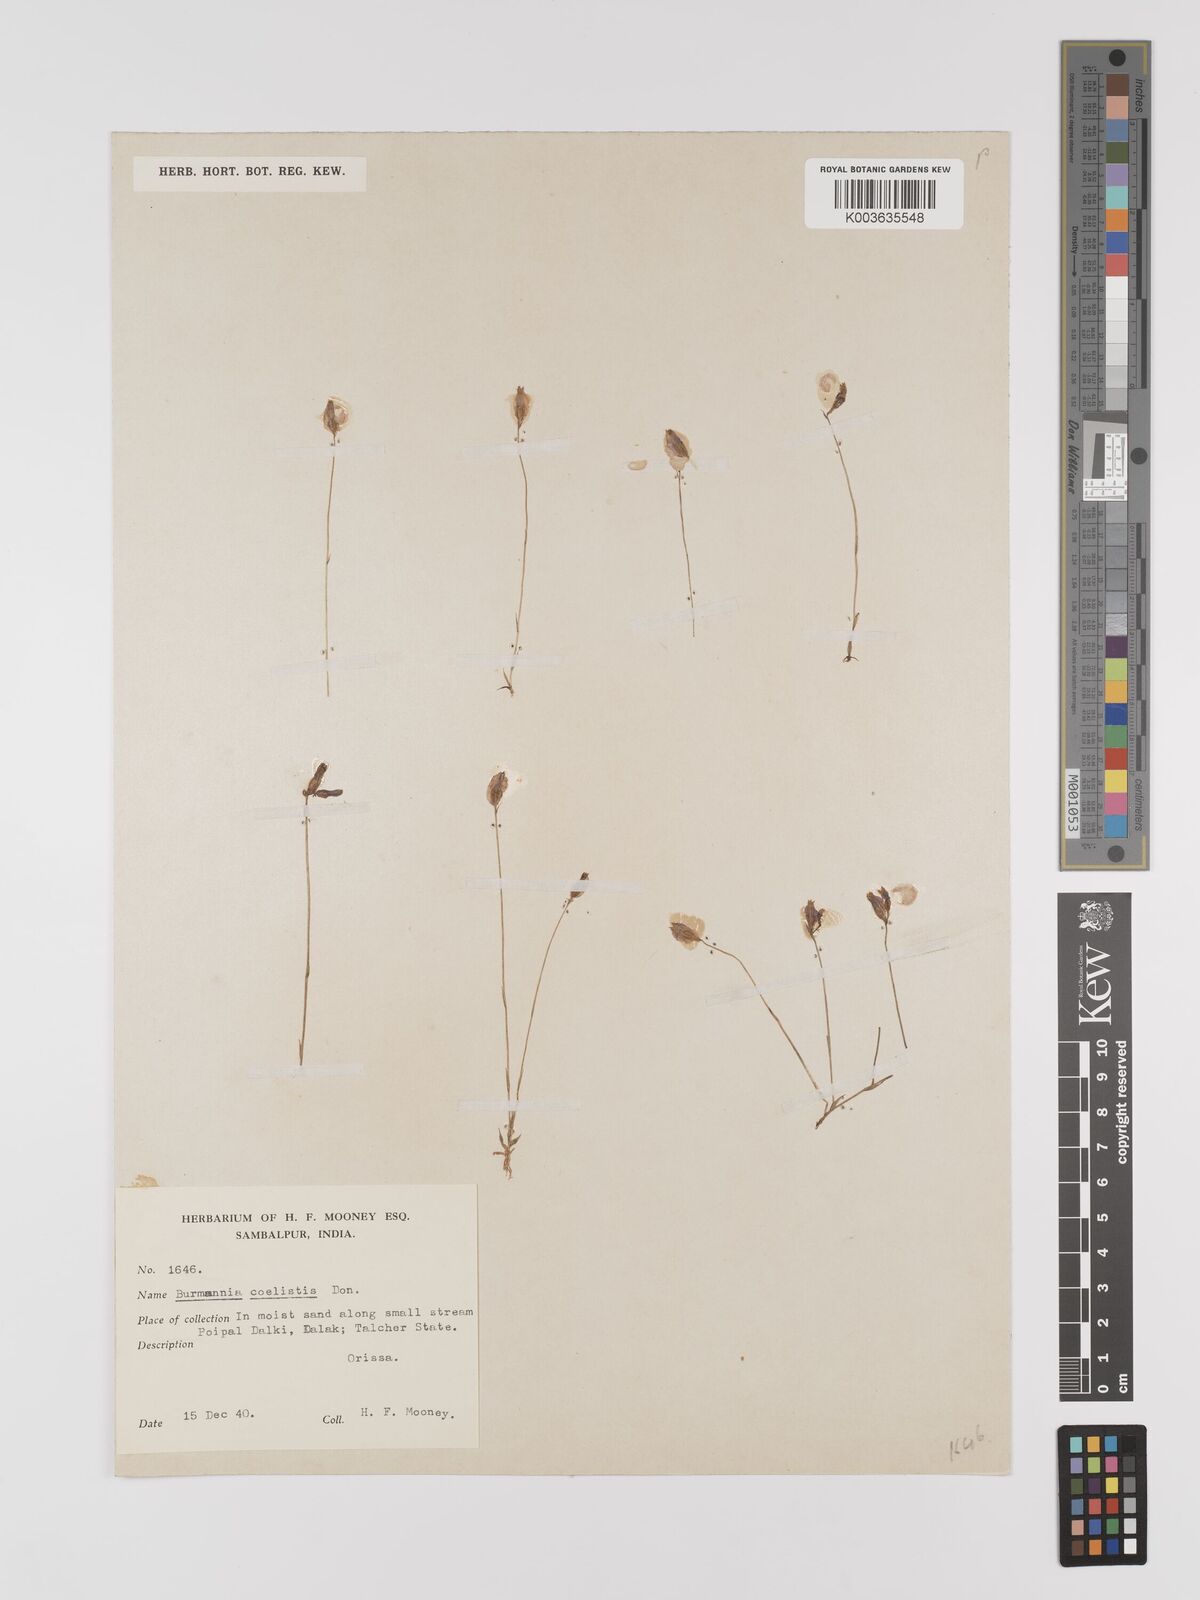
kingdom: Plantae
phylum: Tracheophyta
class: Liliopsida
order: Dioscoreales
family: Burmanniaceae
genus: Burmannia
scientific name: Burmannia coelestis
